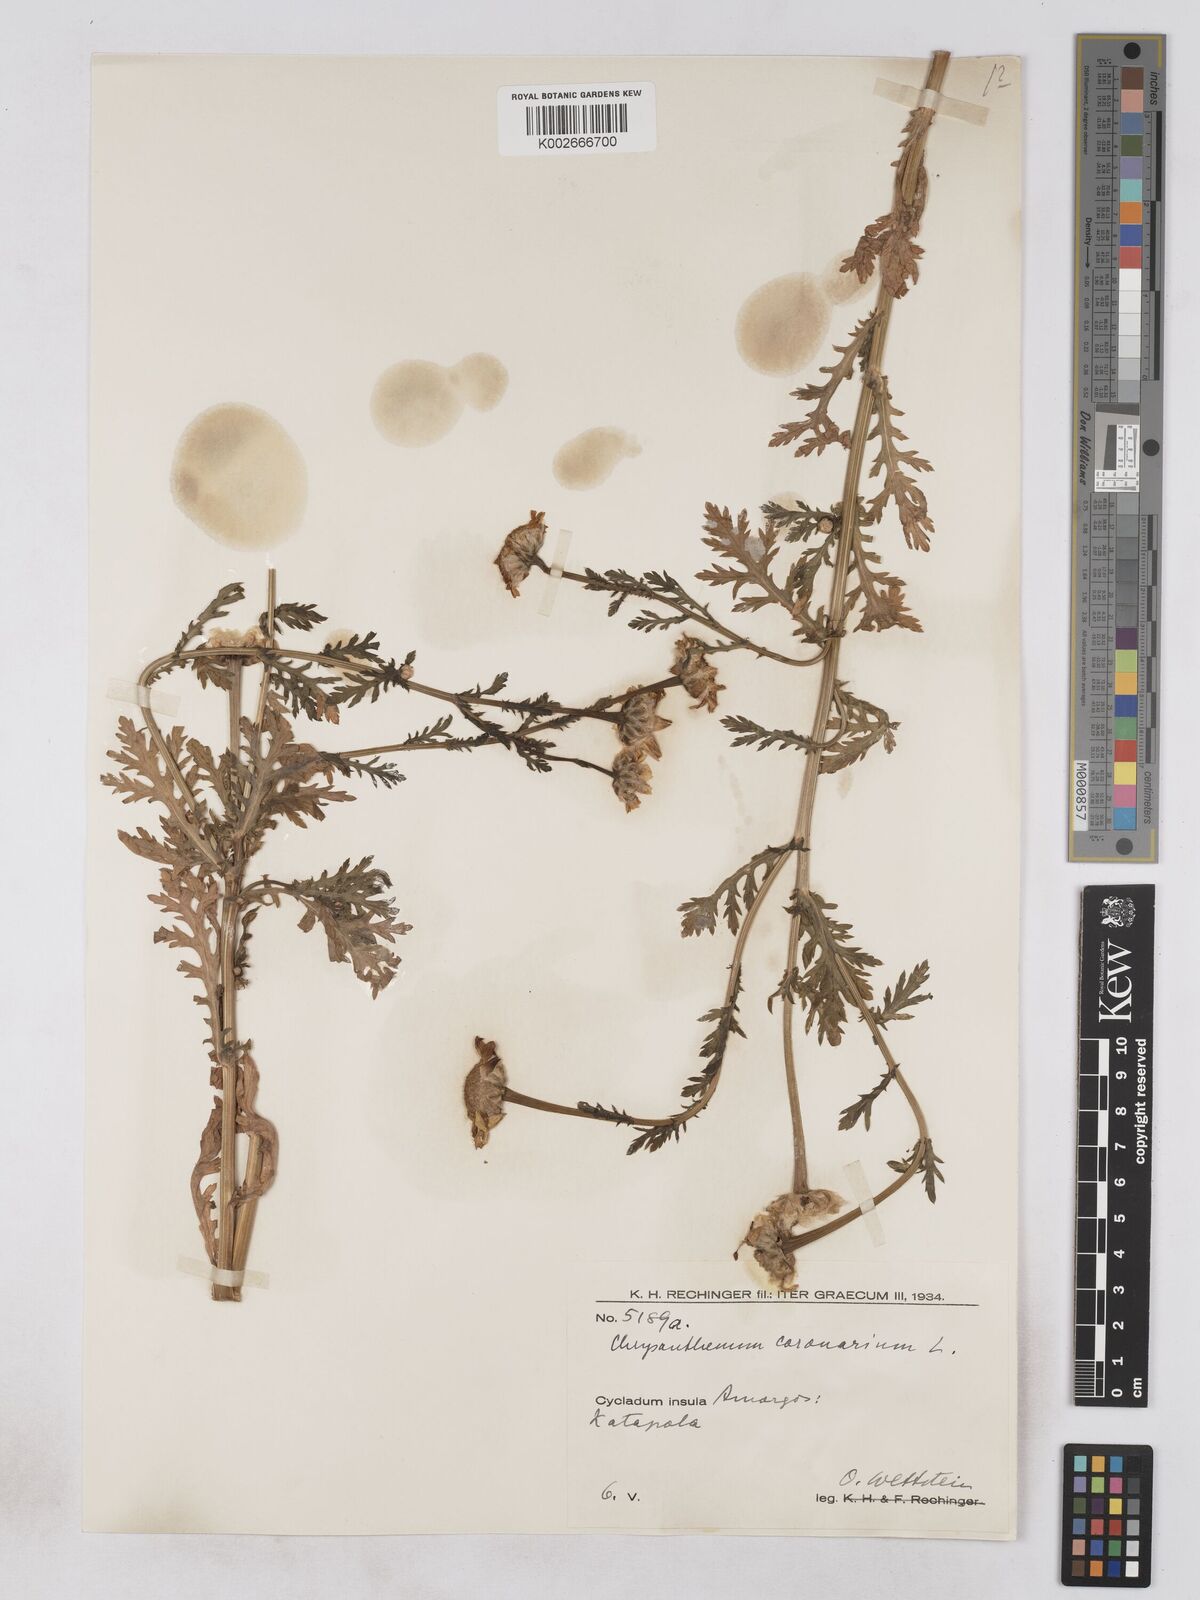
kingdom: Plantae
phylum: Tracheophyta
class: Magnoliopsida
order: Asterales
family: Asteraceae
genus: Glebionis
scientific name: Glebionis coronaria
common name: Crowndaisy
